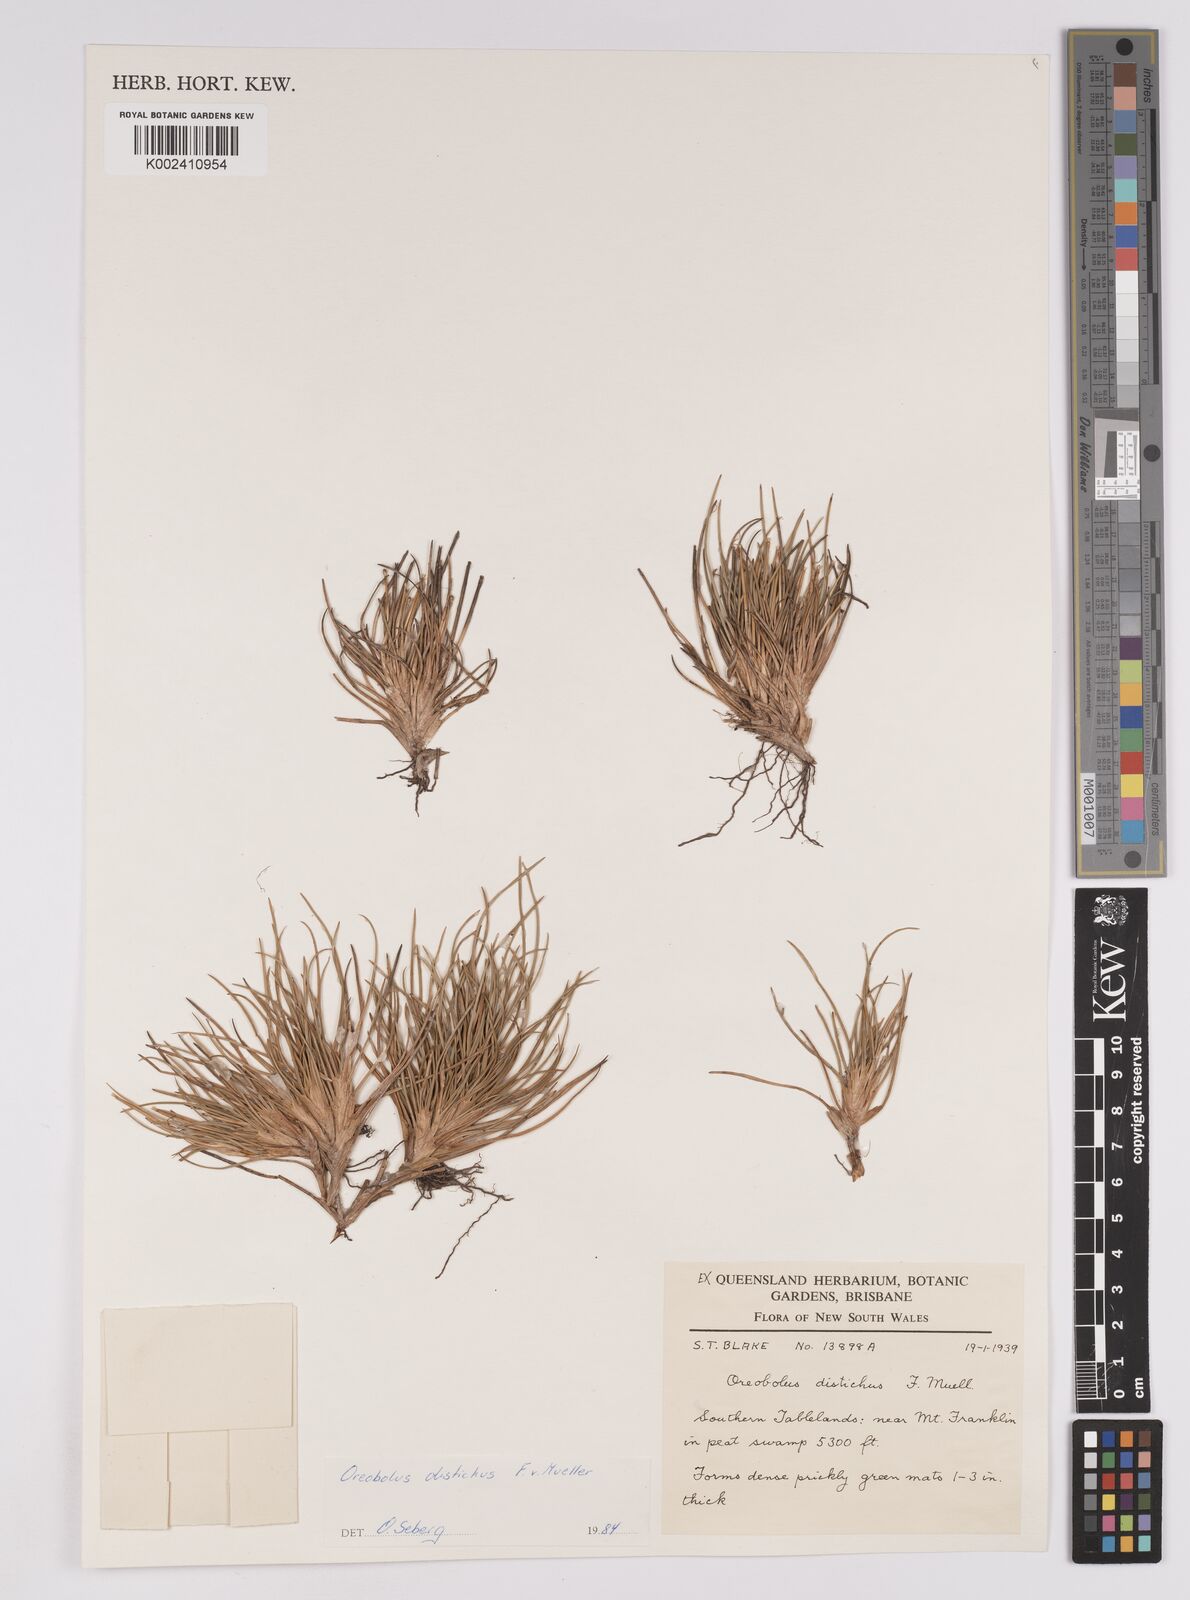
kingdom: Plantae
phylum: Tracheophyta
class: Liliopsida
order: Poales
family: Cyperaceae
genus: Oreobolus
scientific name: Oreobolus distichus
